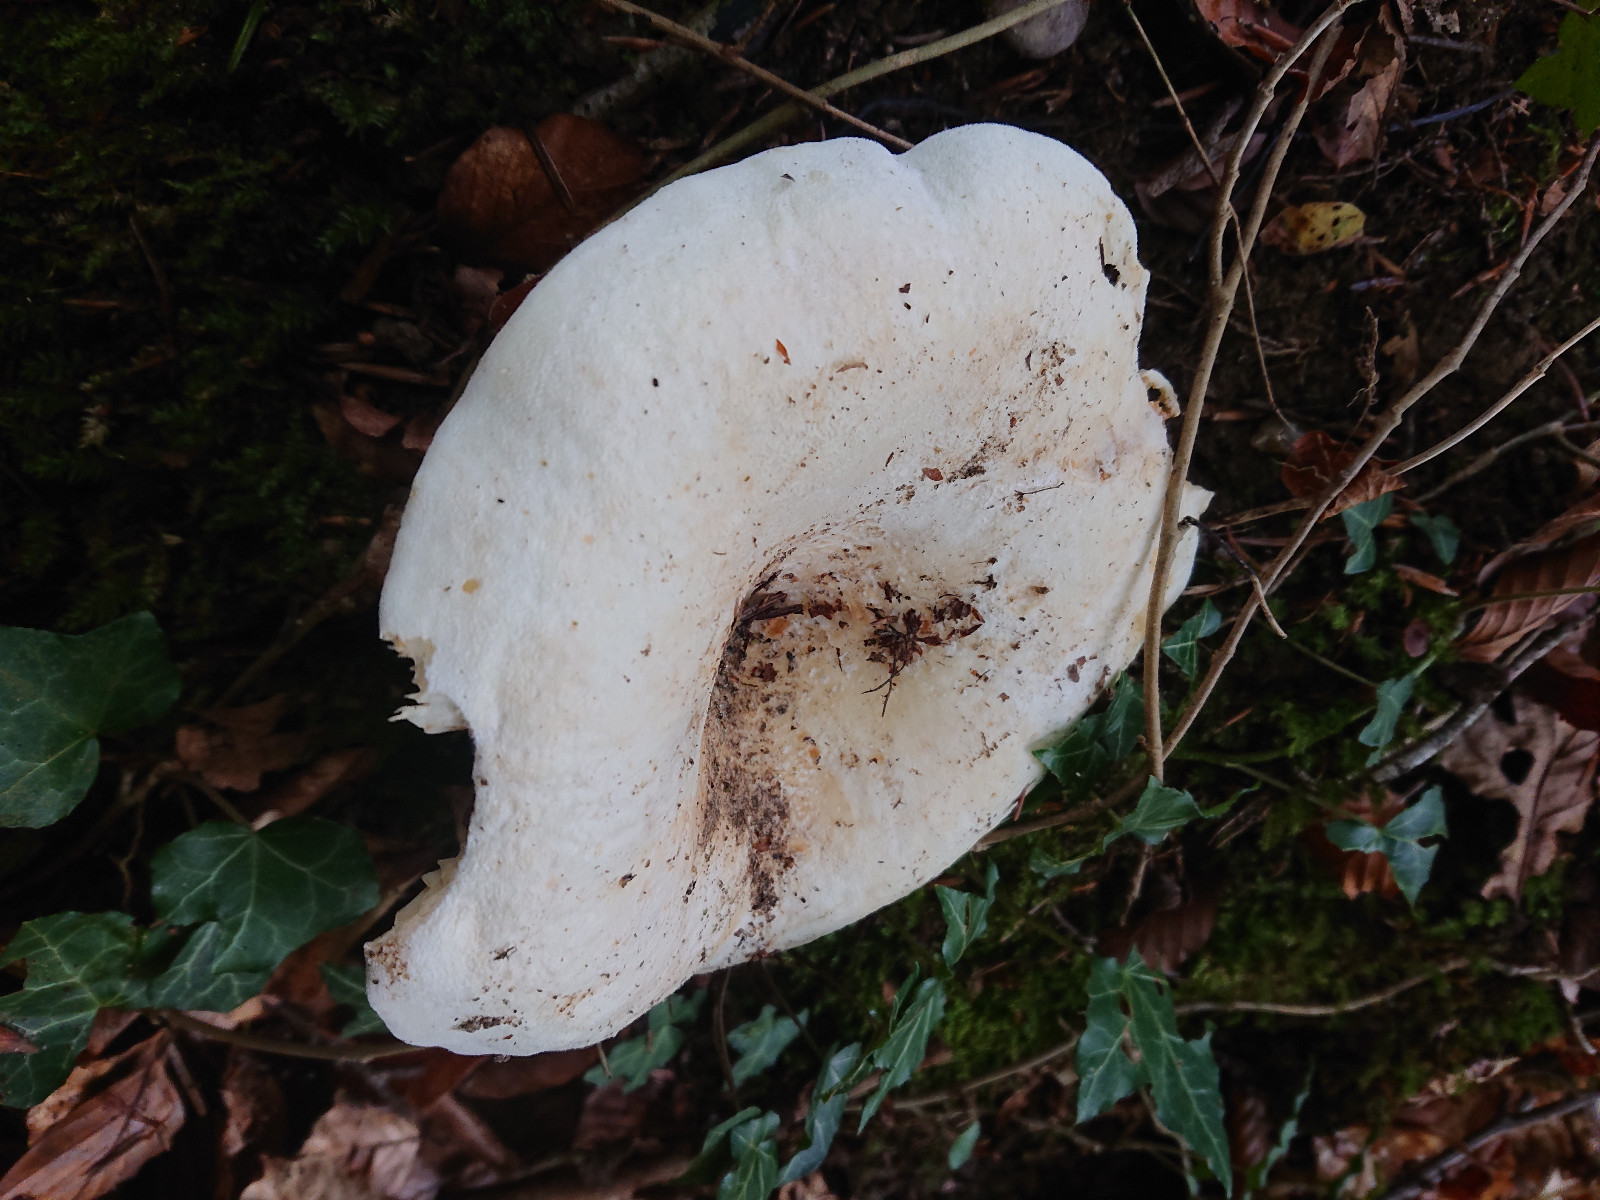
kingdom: Fungi
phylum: Basidiomycota
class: Agaricomycetes
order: Russulales
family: Russulaceae
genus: Lactifluus
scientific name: Lactifluus
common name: mælkehat
